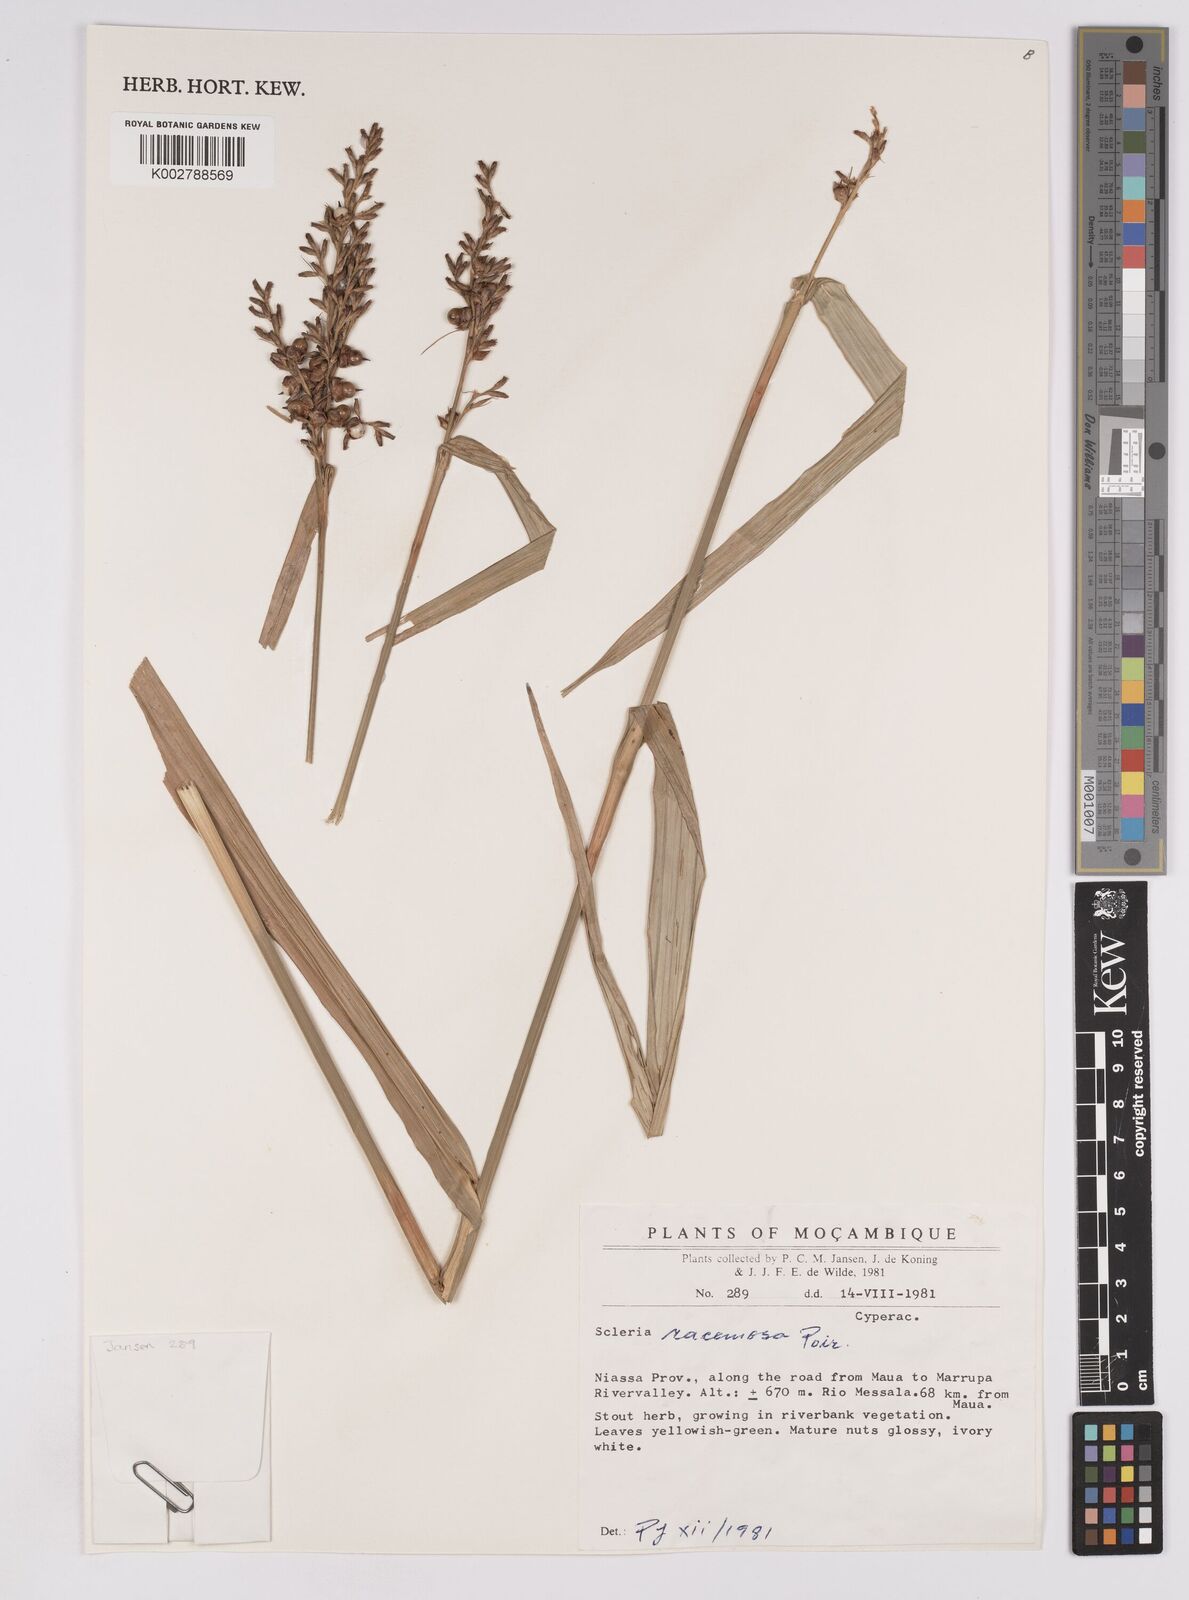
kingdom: Plantae
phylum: Tracheophyta
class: Liliopsida
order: Poales
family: Cyperaceae
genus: Scleria
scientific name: Scleria racemosa
